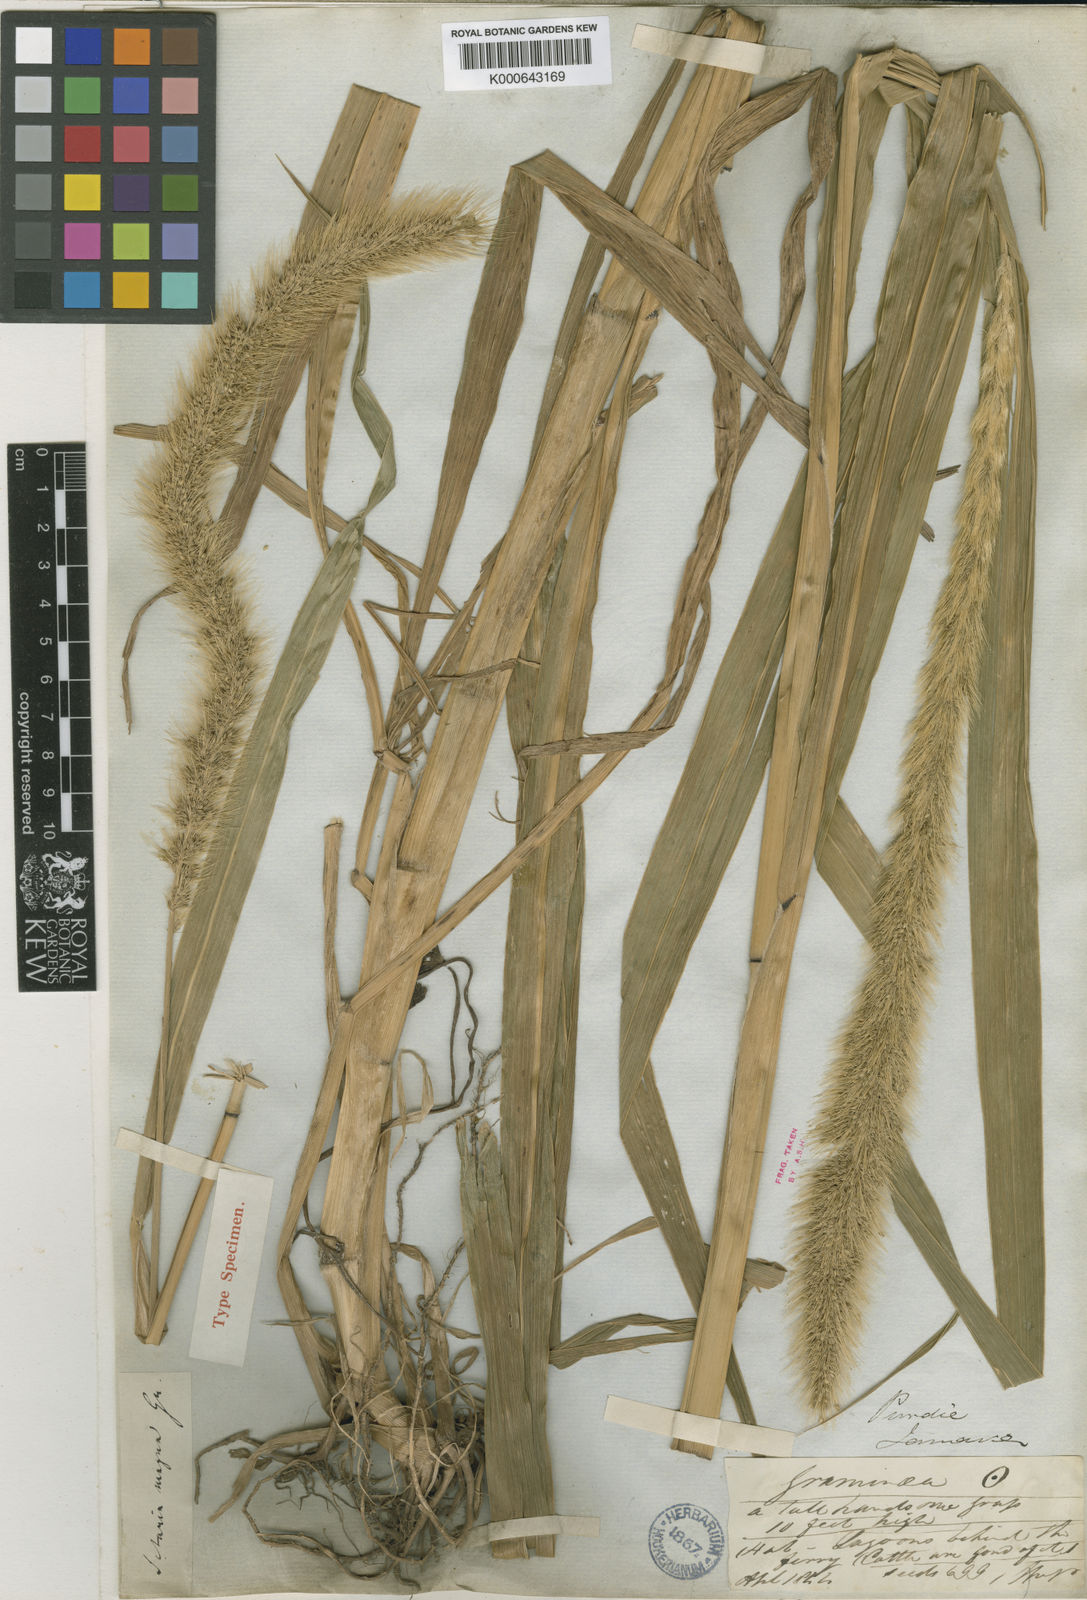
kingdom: Plantae
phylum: Tracheophyta
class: Liliopsida
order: Poales
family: Poaceae
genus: Setaria
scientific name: Setaria magna
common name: Giant bristle grass
